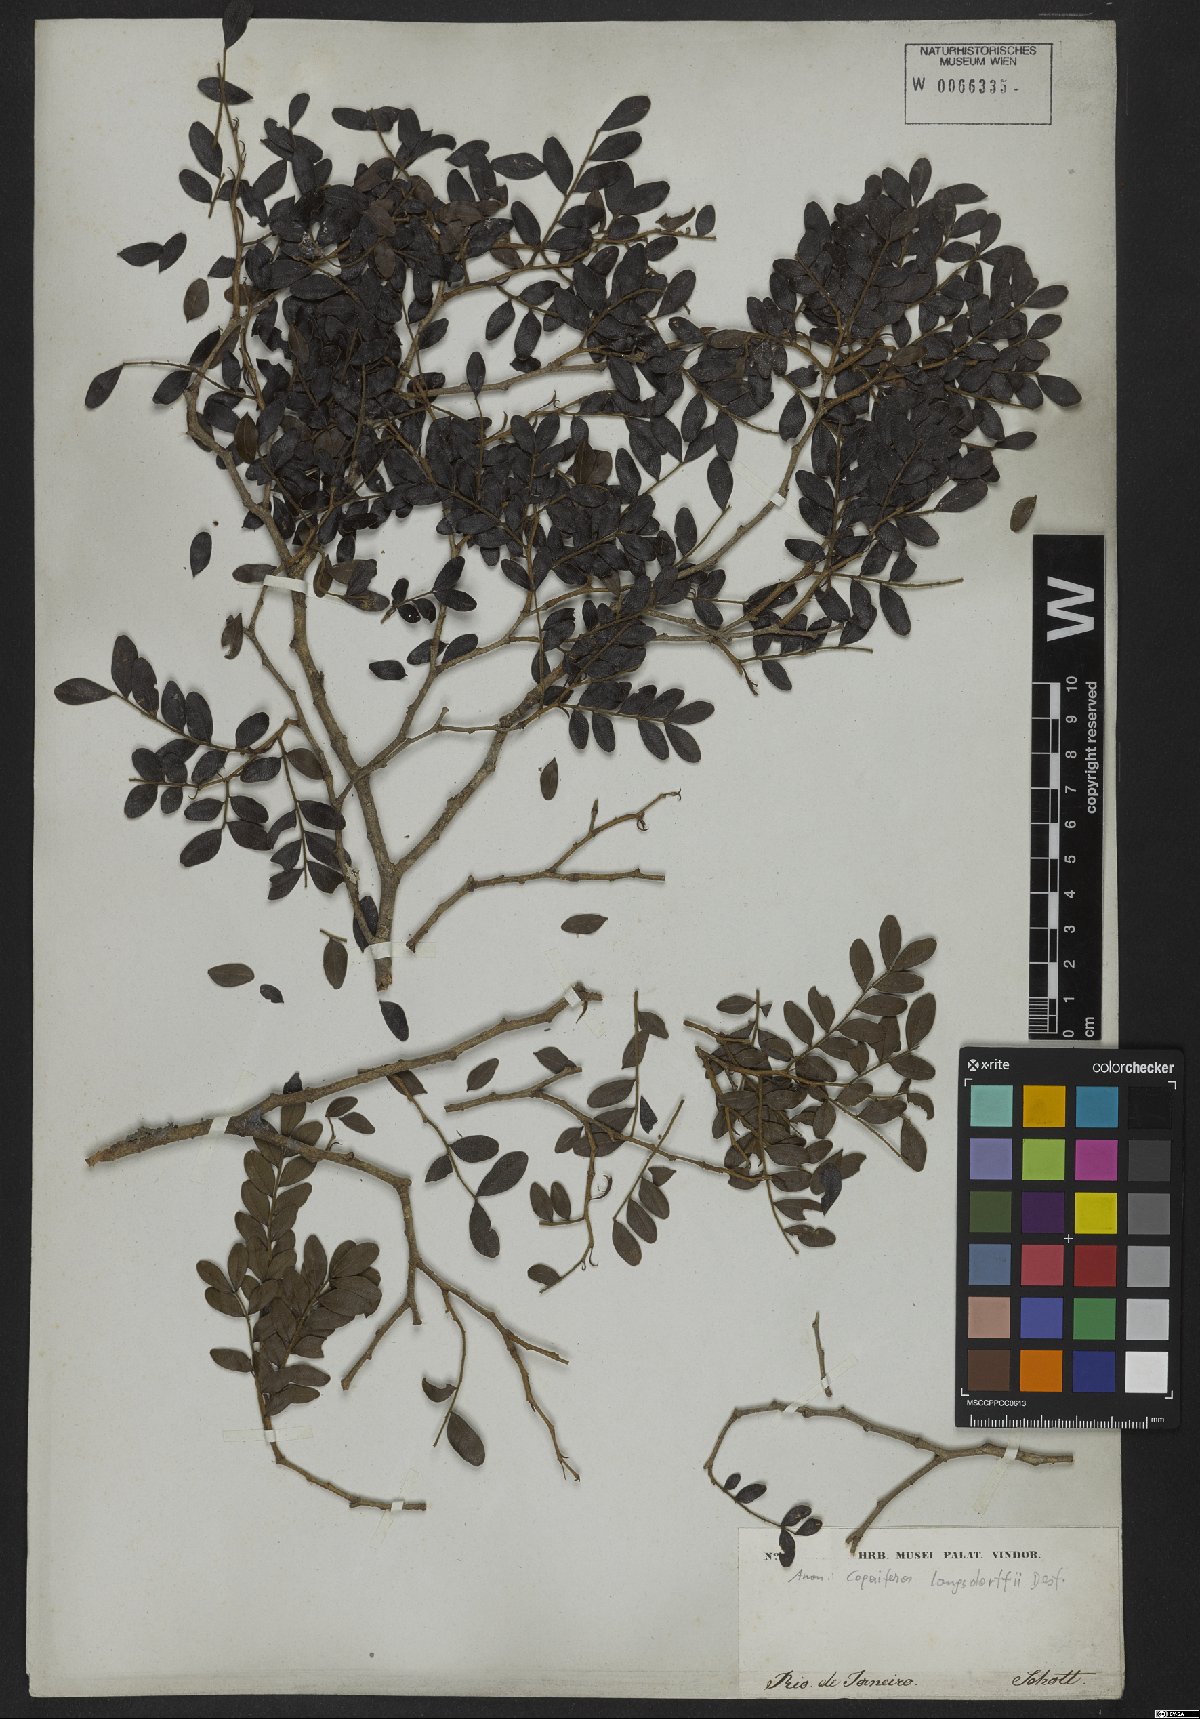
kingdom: Plantae
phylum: Tracheophyta
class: Magnoliopsida
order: Fabales
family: Fabaceae
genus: Copaifera
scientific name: Copaifera langsdorffii
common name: Brazilian diesel tree
